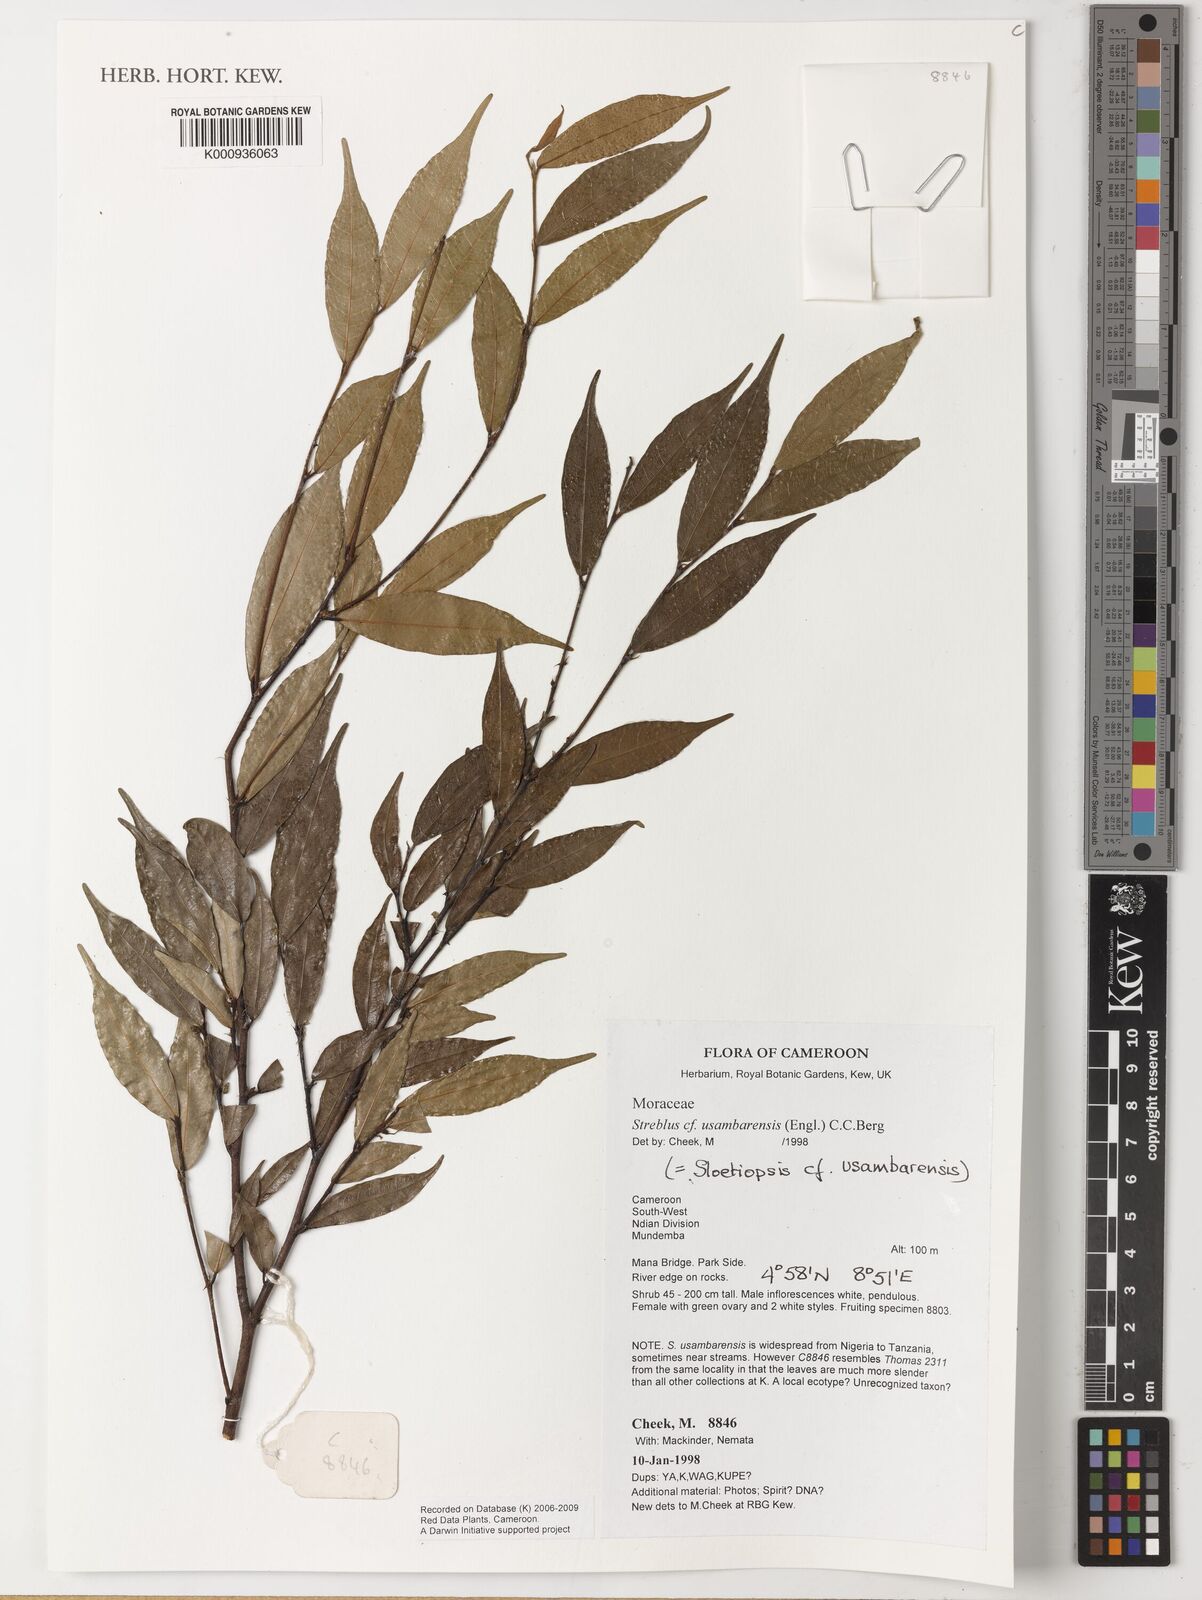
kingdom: Plantae
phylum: Tracheophyta
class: Magnoliopsida
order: Rosales
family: Moraceae
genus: Sloetiopsis
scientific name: Sloetiopsis usambarensis
